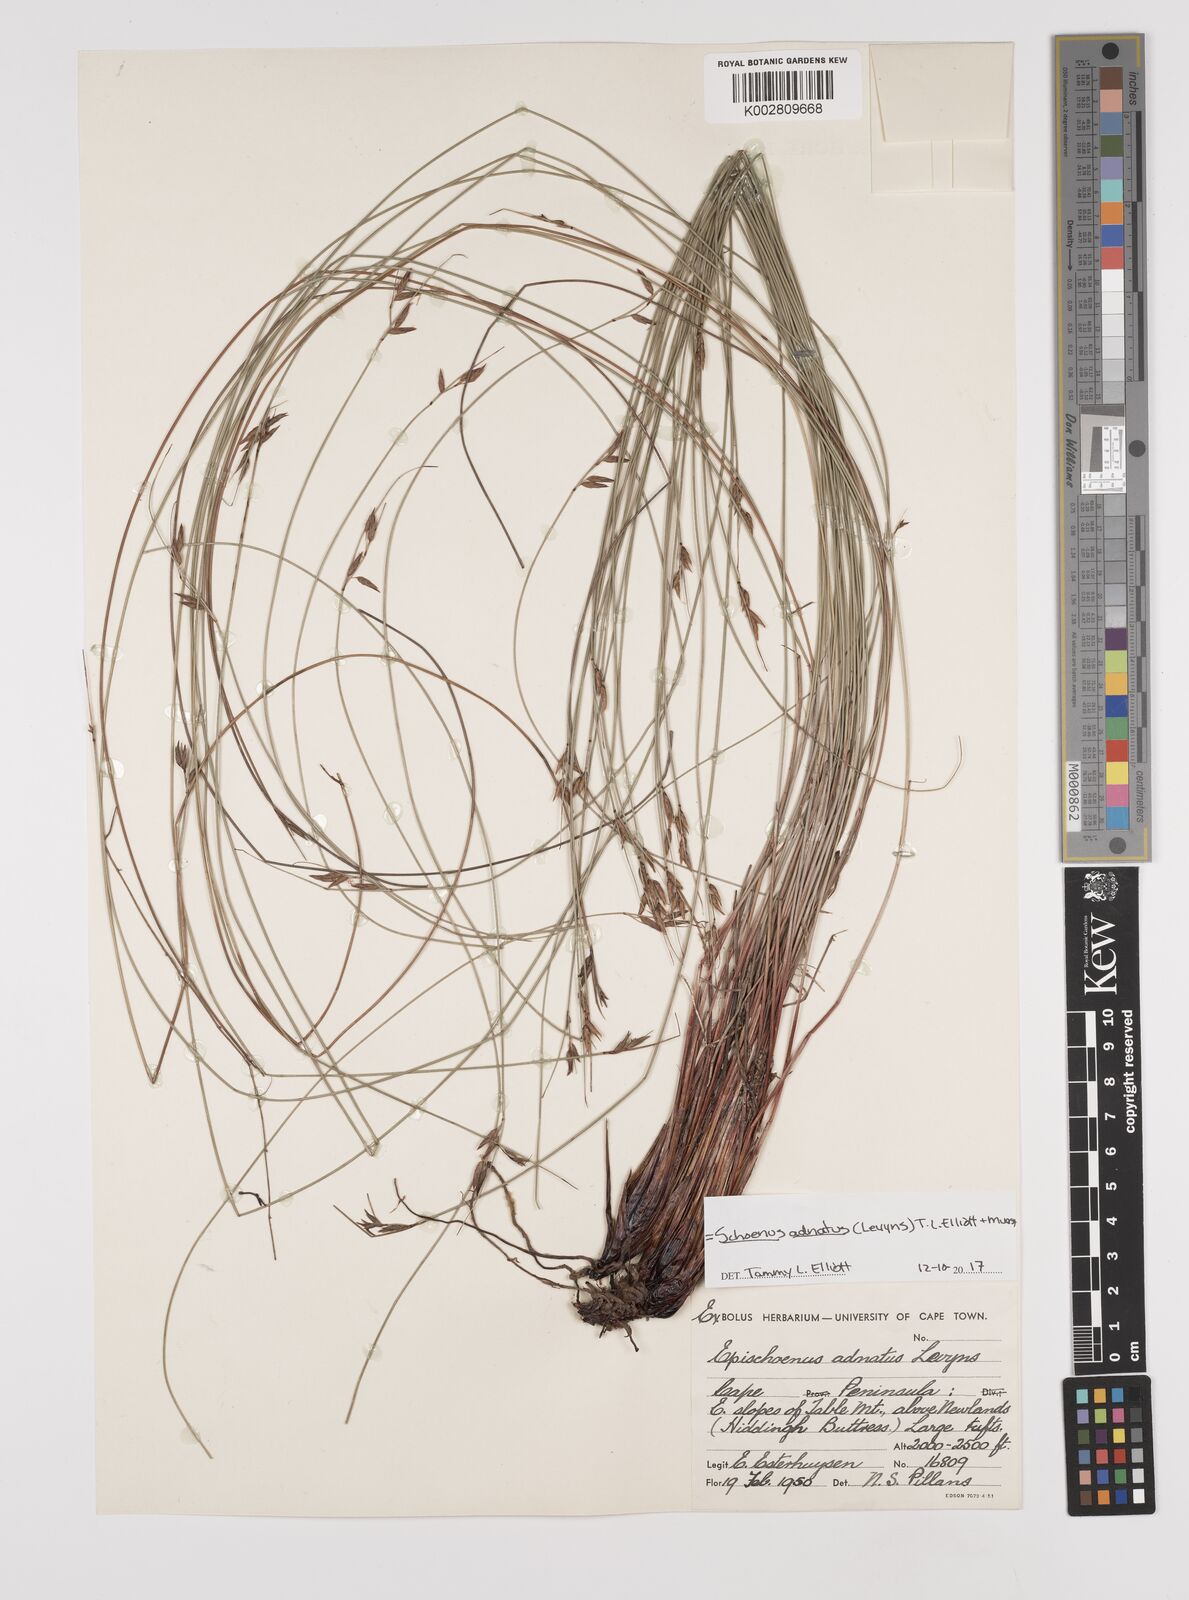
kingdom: Plantae
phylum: Tracheophyta
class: Liliopsida
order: Poales
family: Cyperaceae
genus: Schoenus
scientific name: Schoenus adnatus
